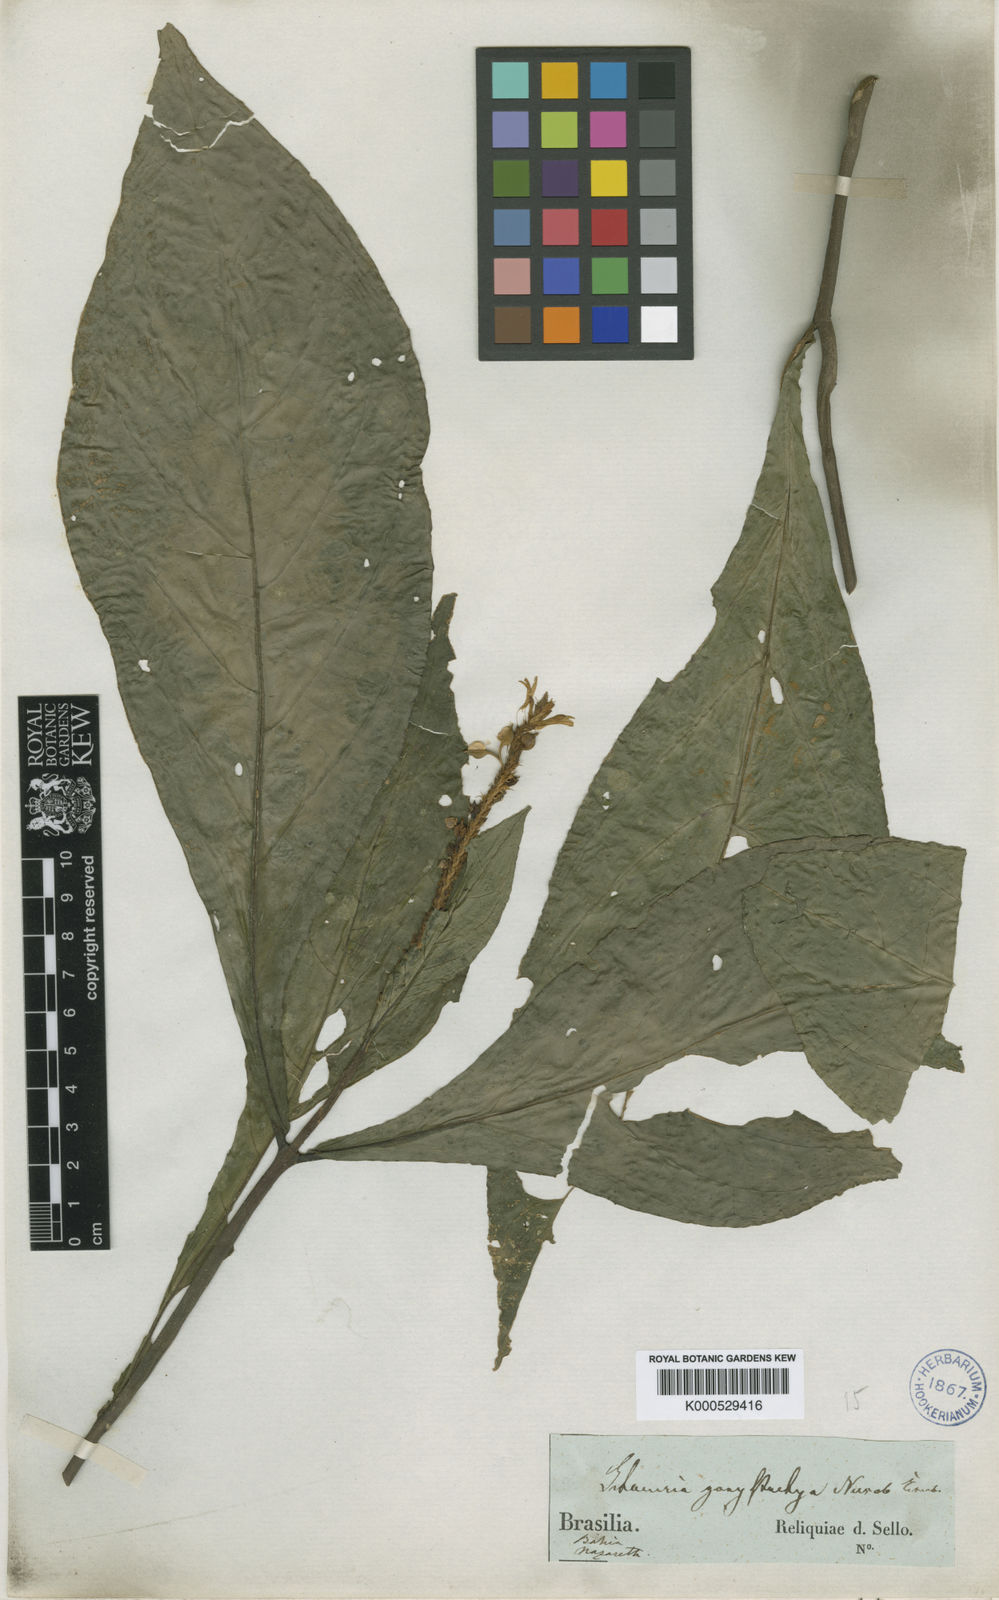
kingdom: Plantae
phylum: Tracheophyta
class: Magnoliopsida
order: Lamiales
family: Acanthaceae
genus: Schaueria
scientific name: Schaueria
